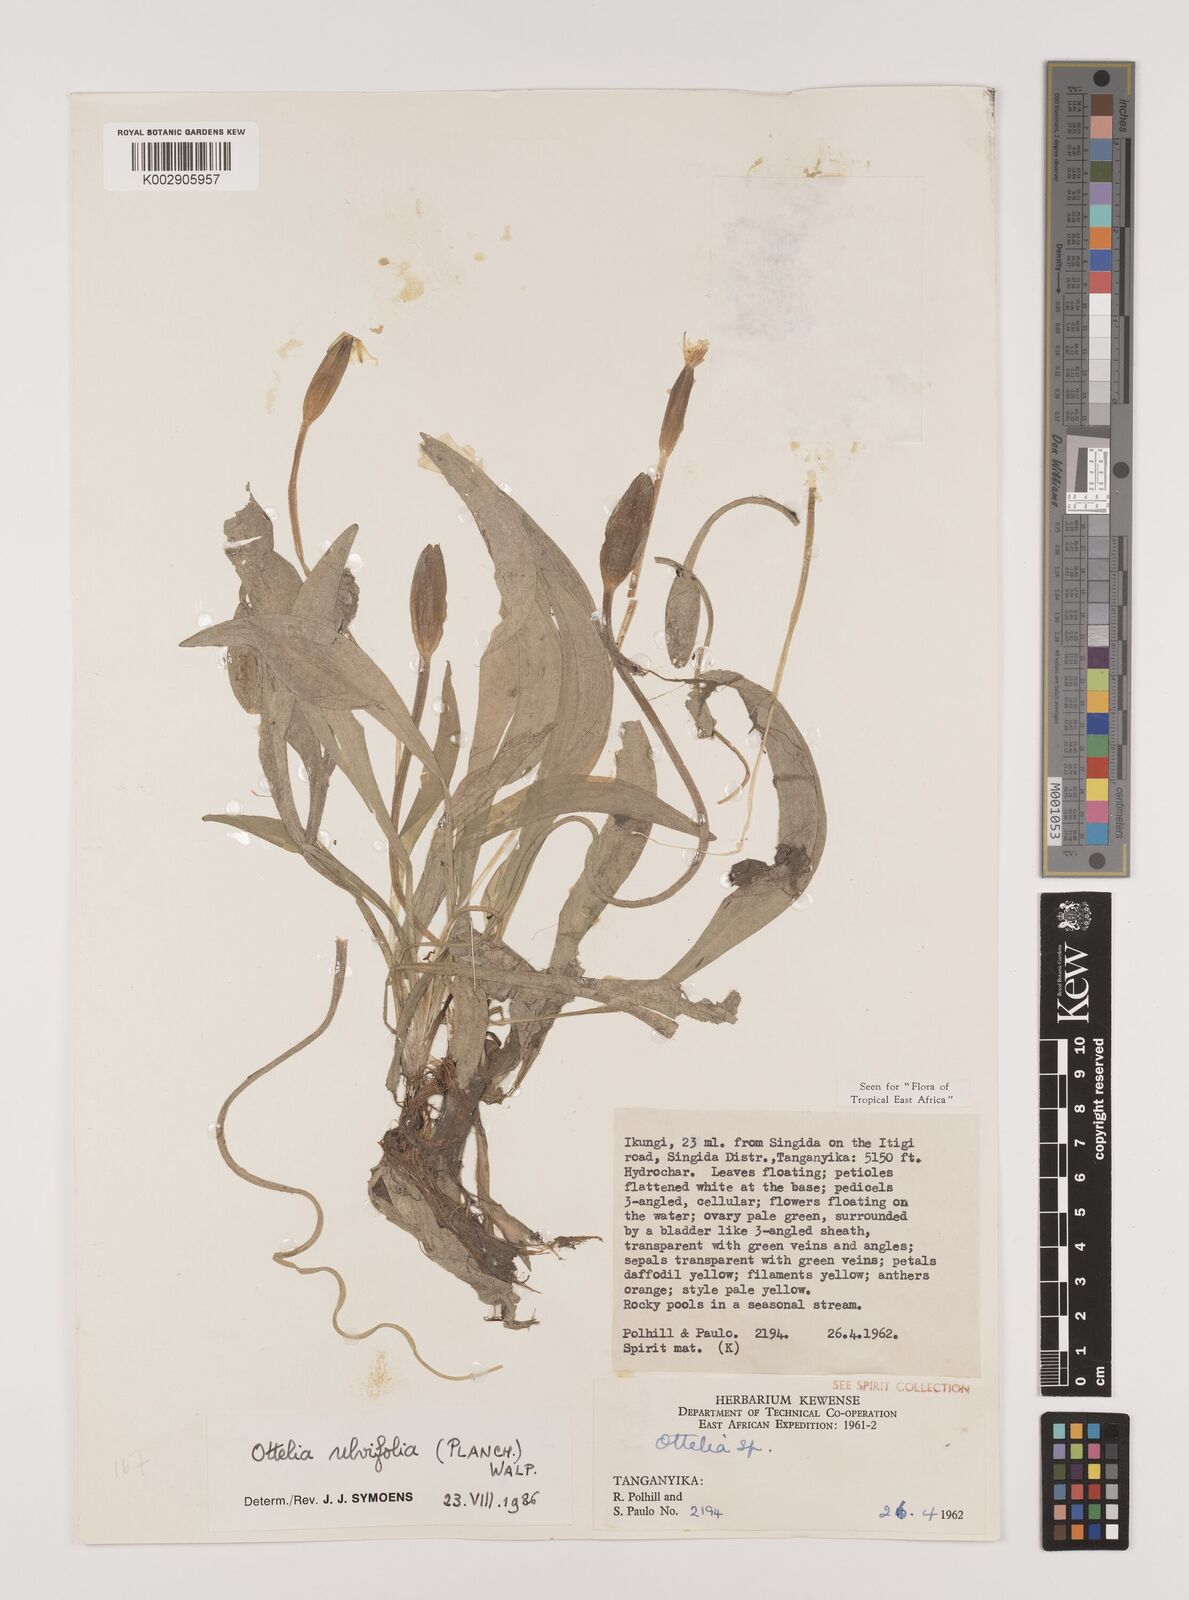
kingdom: Plantae
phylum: Tracheophyta
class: Liliopsida
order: Alismatales
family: Hydrocharitaceae
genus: Ottelia
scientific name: Ottelia ulvifolia
